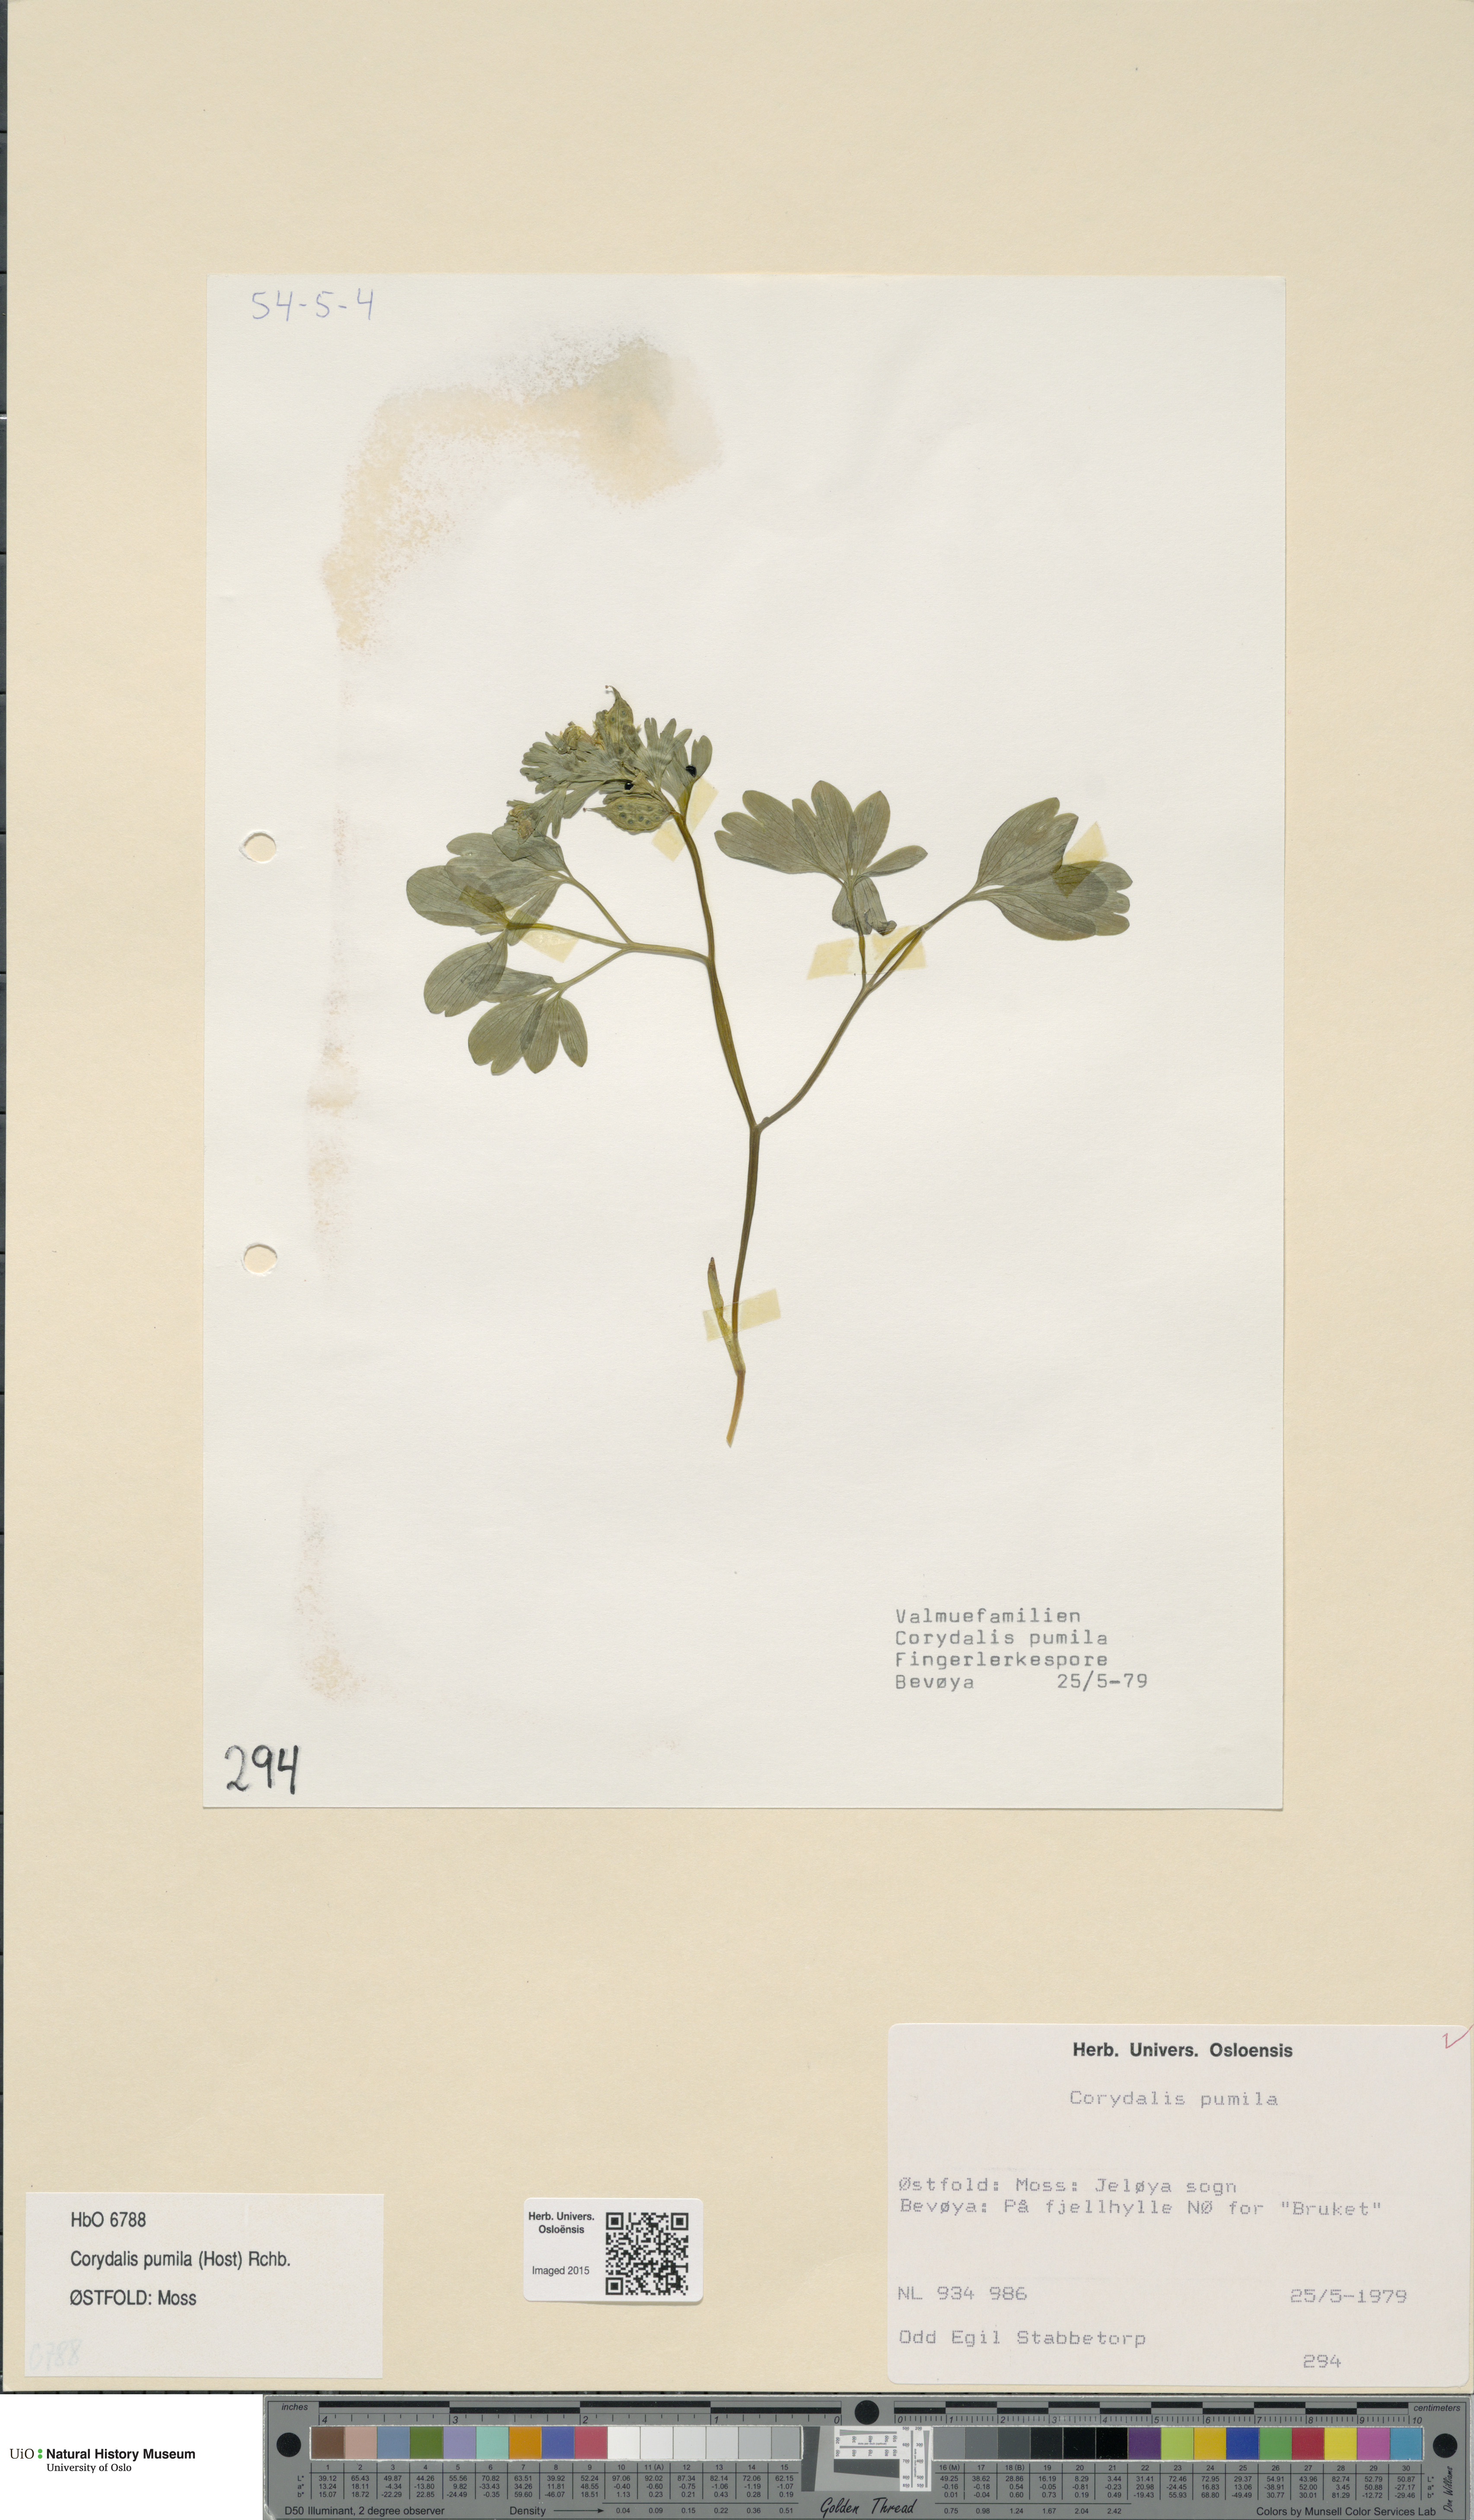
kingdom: Plantae
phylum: Tracheophyta
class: Magnoliopsida
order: Ranunculales
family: Papaveraceae
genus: Corydalis
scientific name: Corydalis pumila
